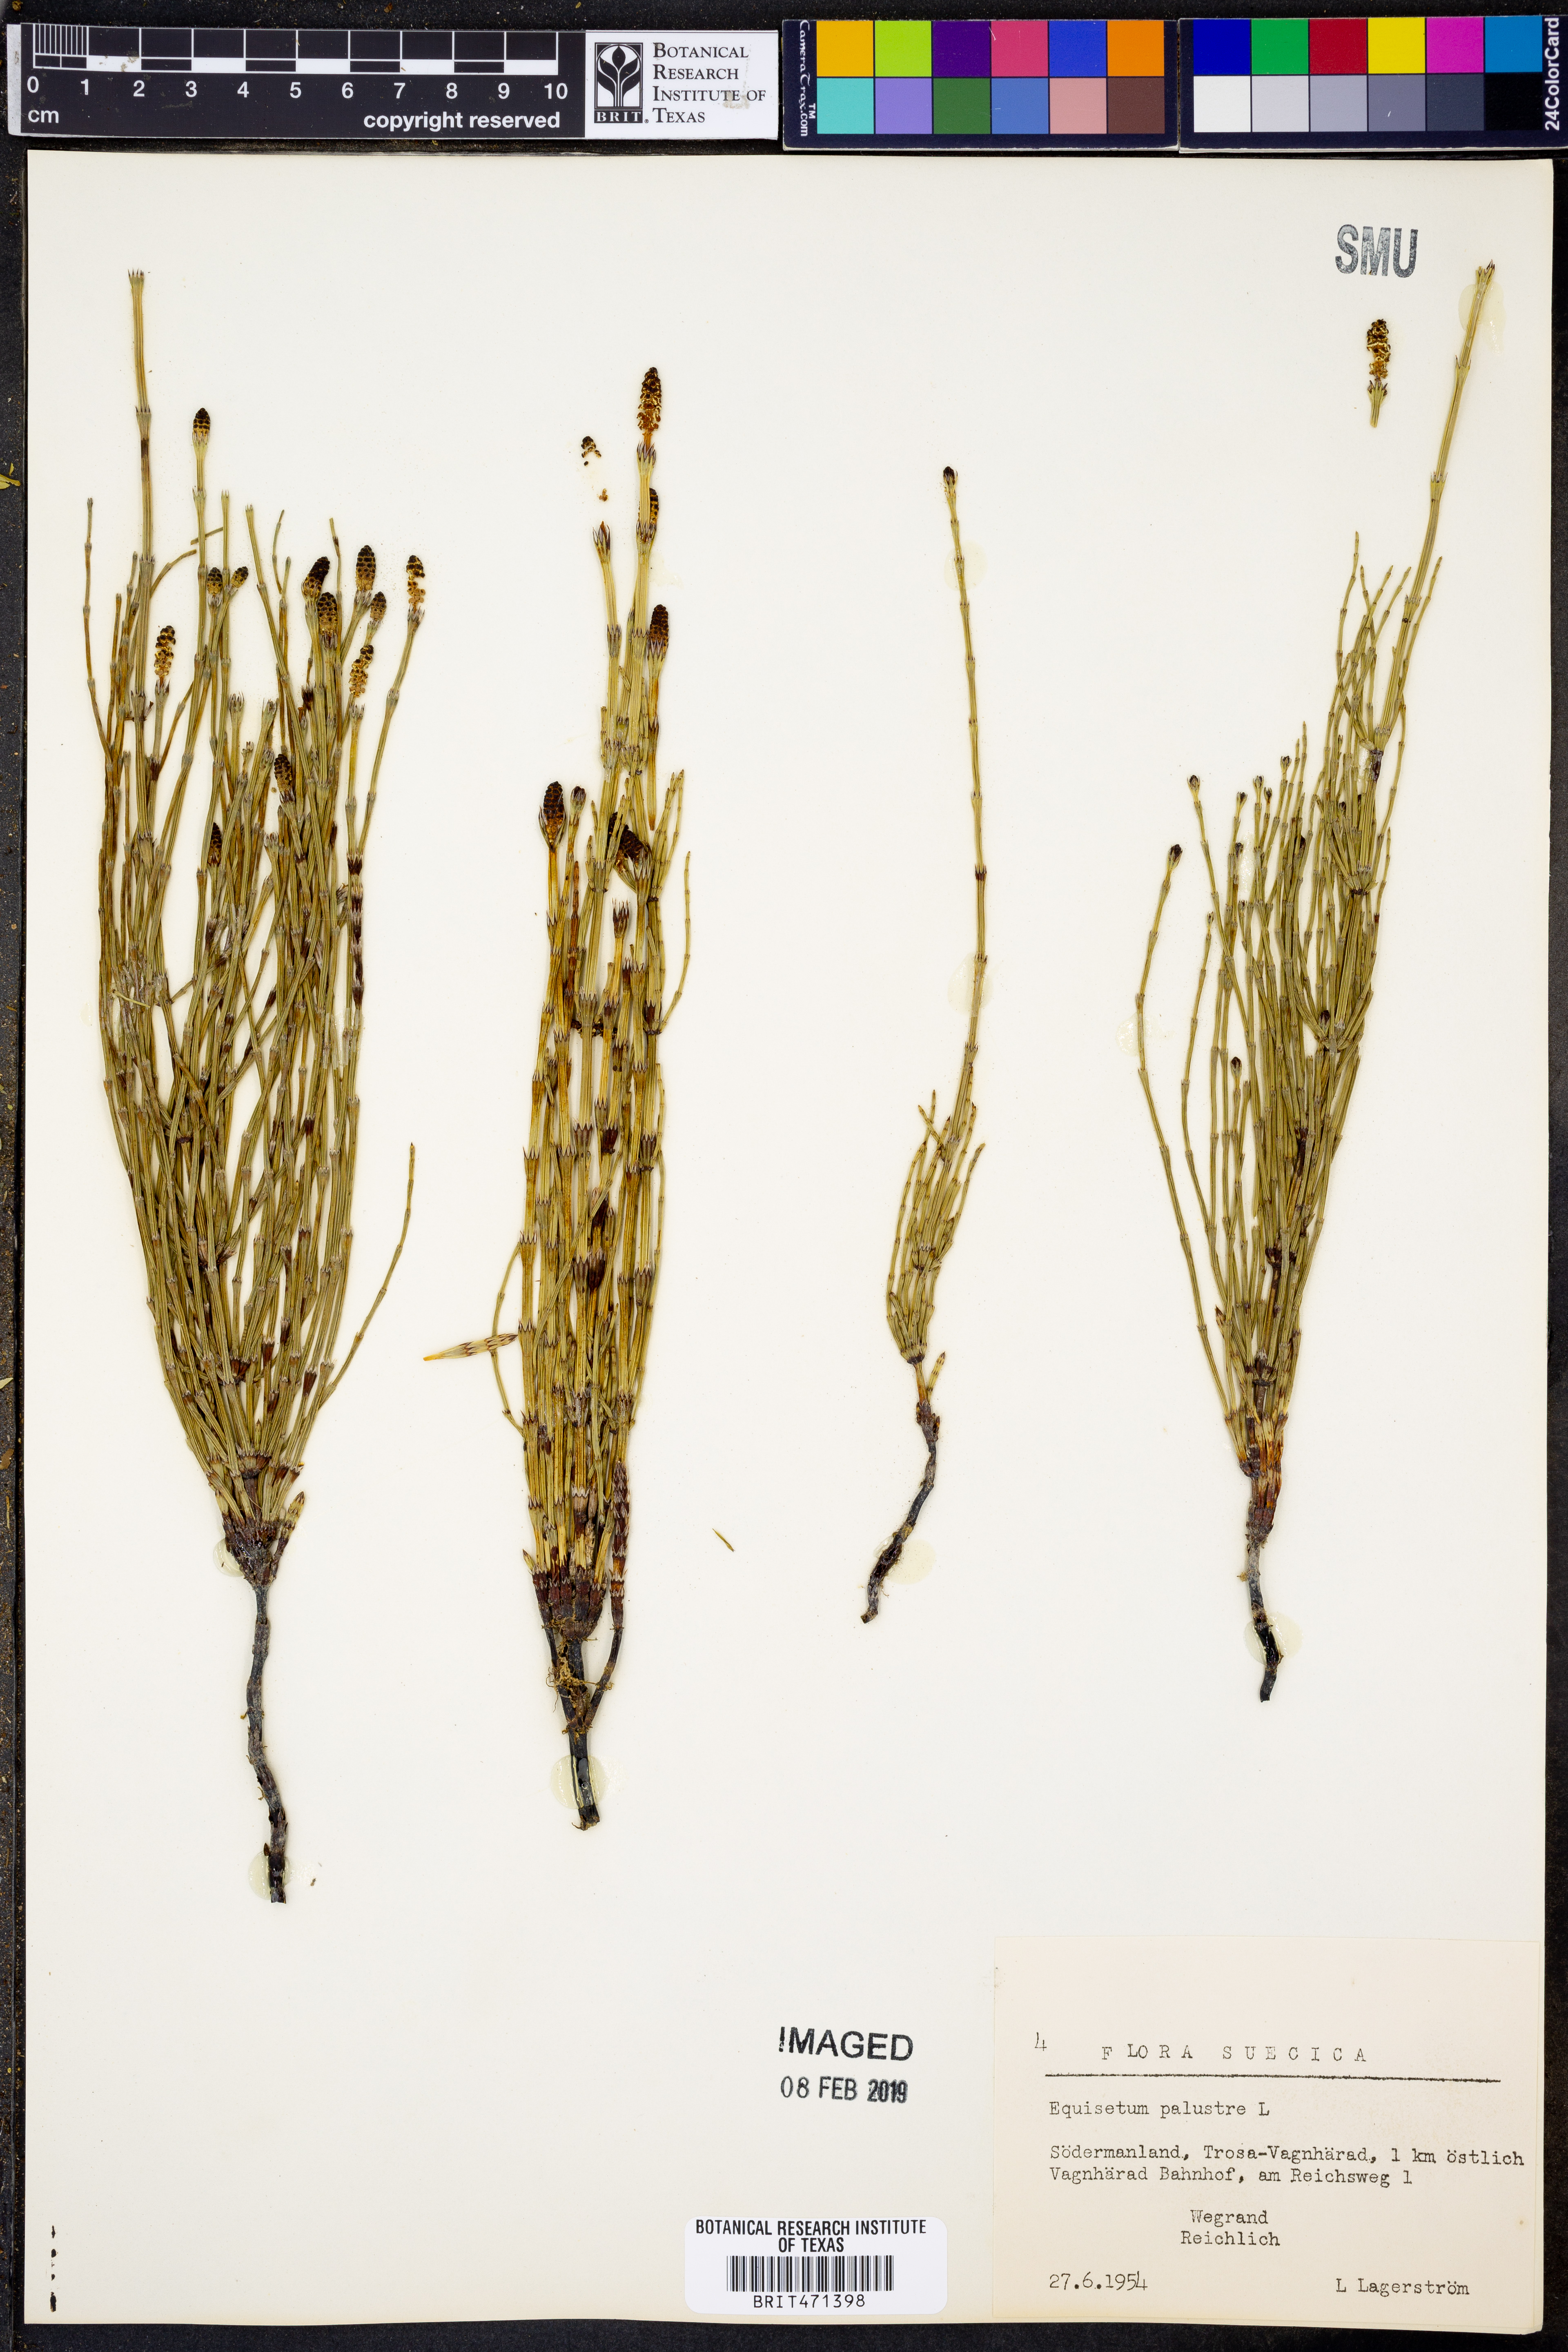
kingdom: Plantae
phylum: Tracheophyta
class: Polypodiopsida
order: Equisetales
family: Equisetaceae
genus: Equisetum
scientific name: Equisetum palustre
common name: Marsh horsetail
